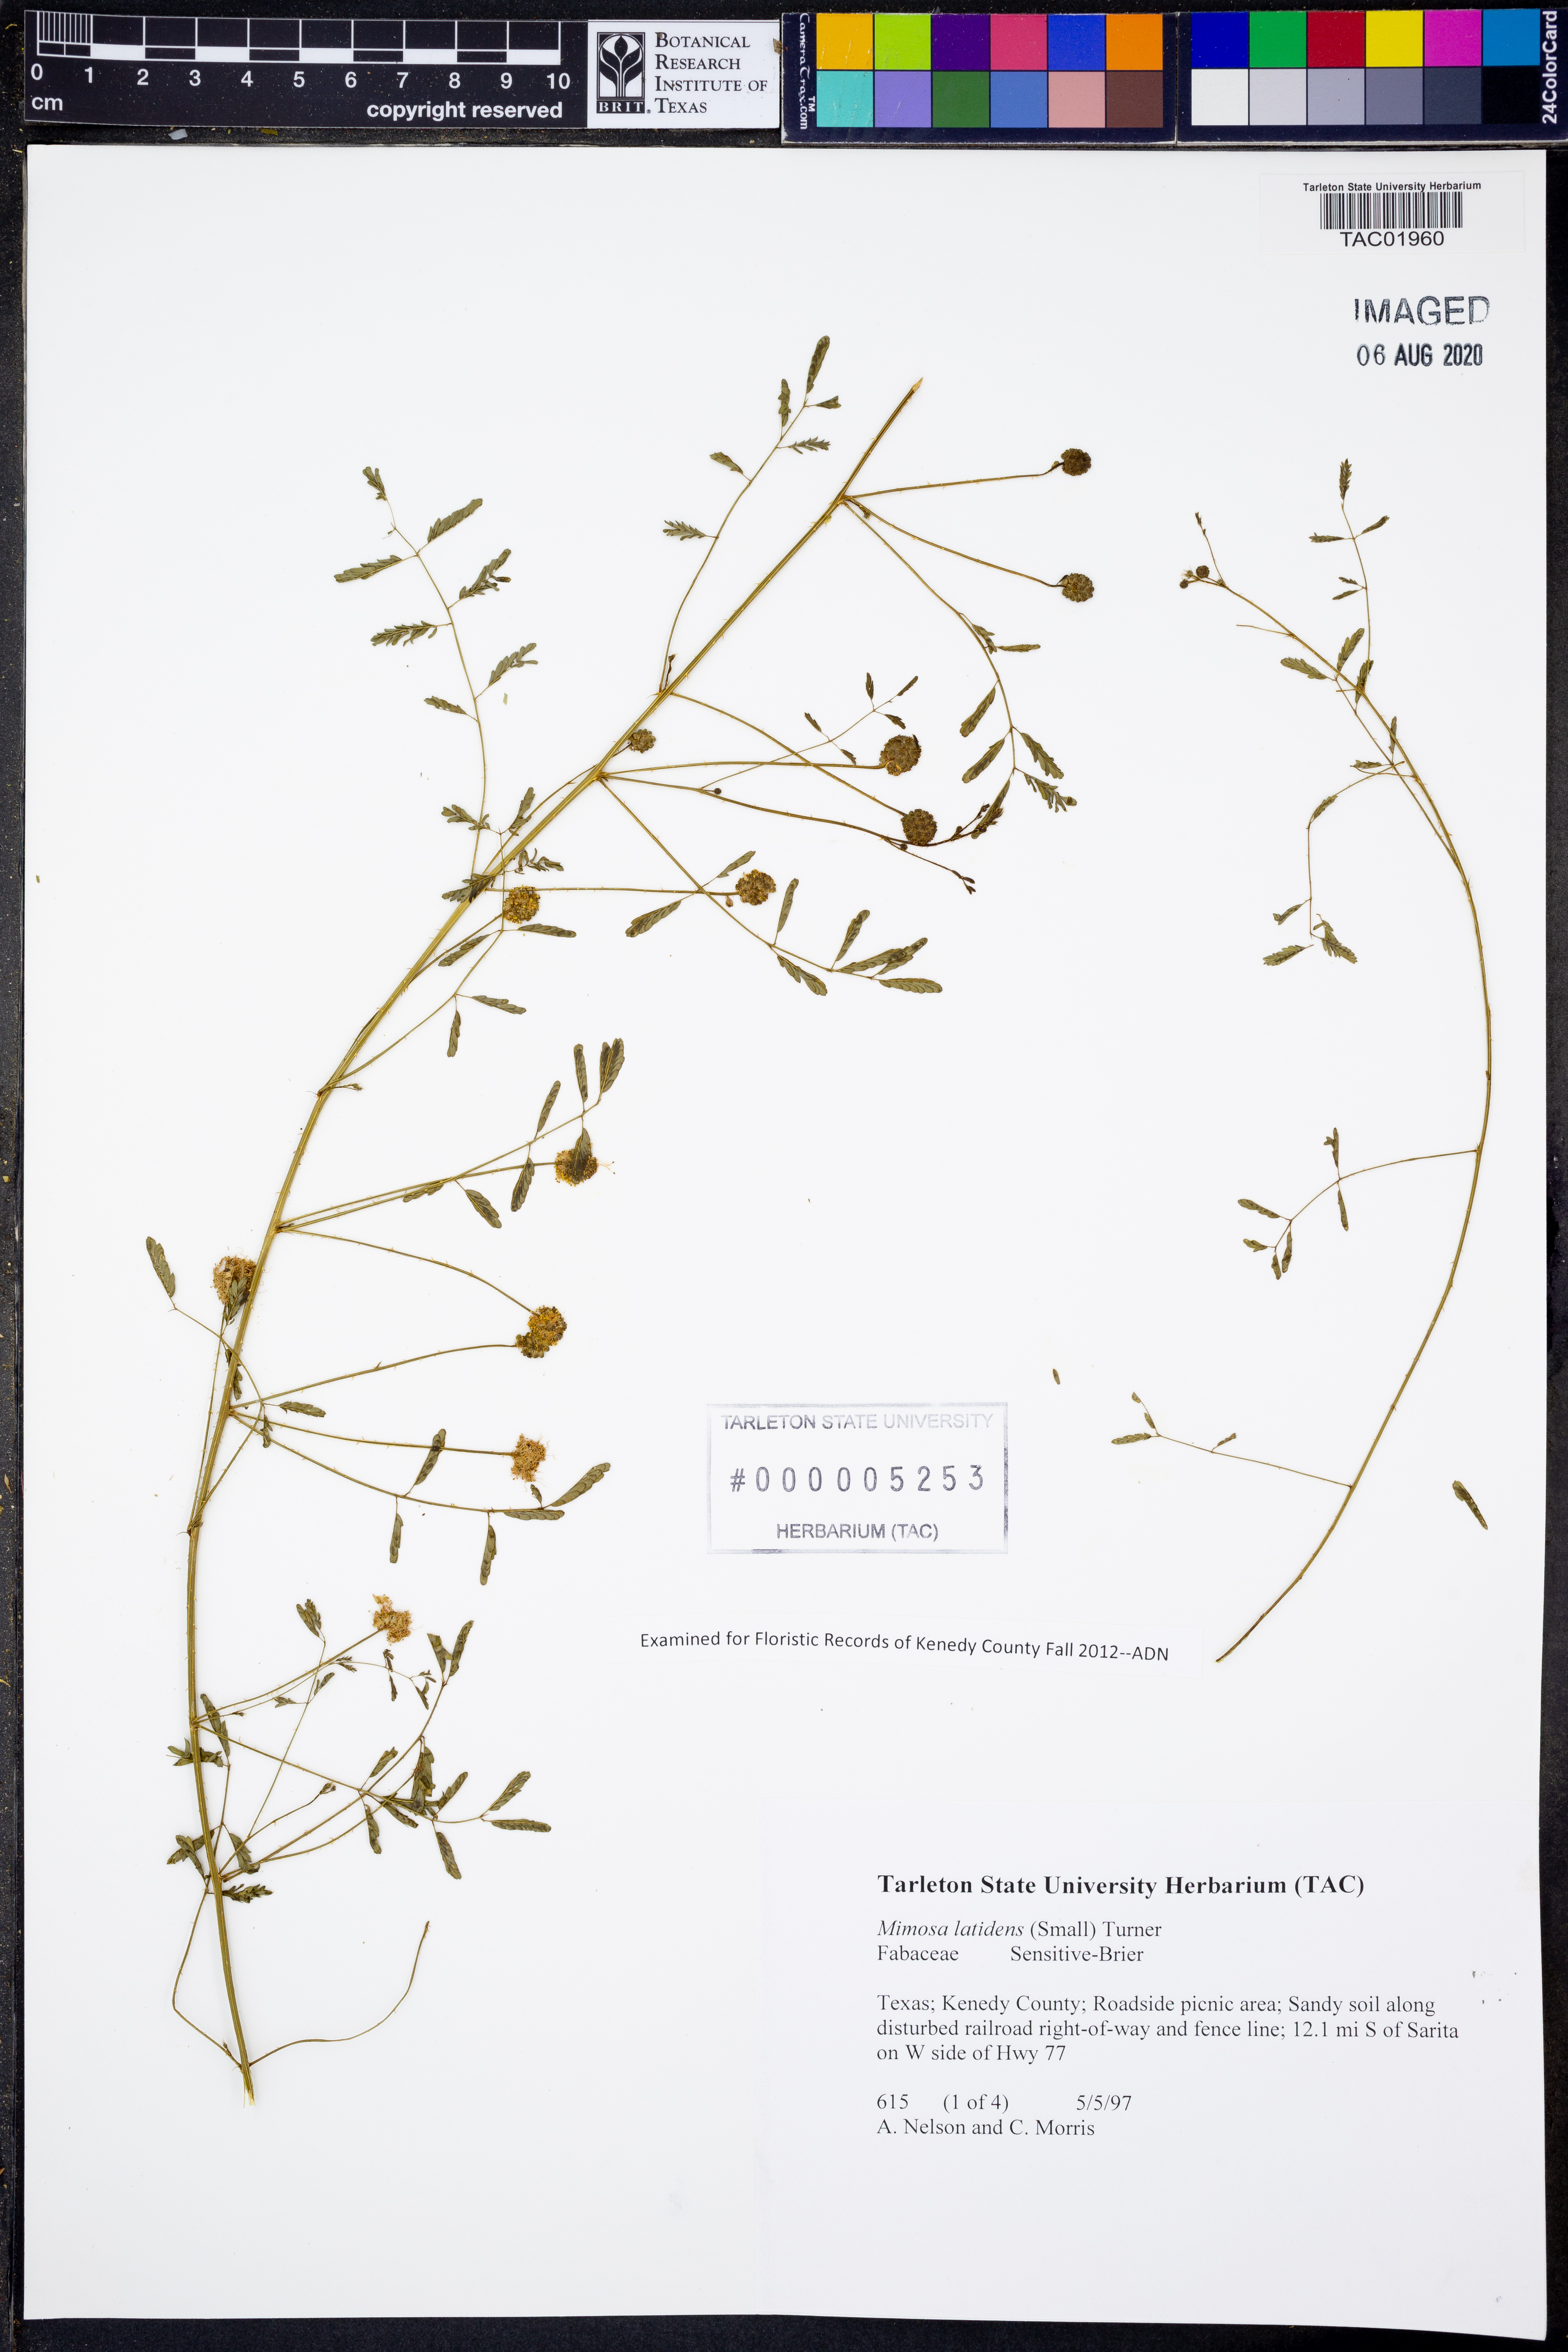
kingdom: Plantae
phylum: Tracheophyta
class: Magnoliopsida
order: Fabales
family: Fabaceae
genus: Mimosa
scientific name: Mimosa latidens
